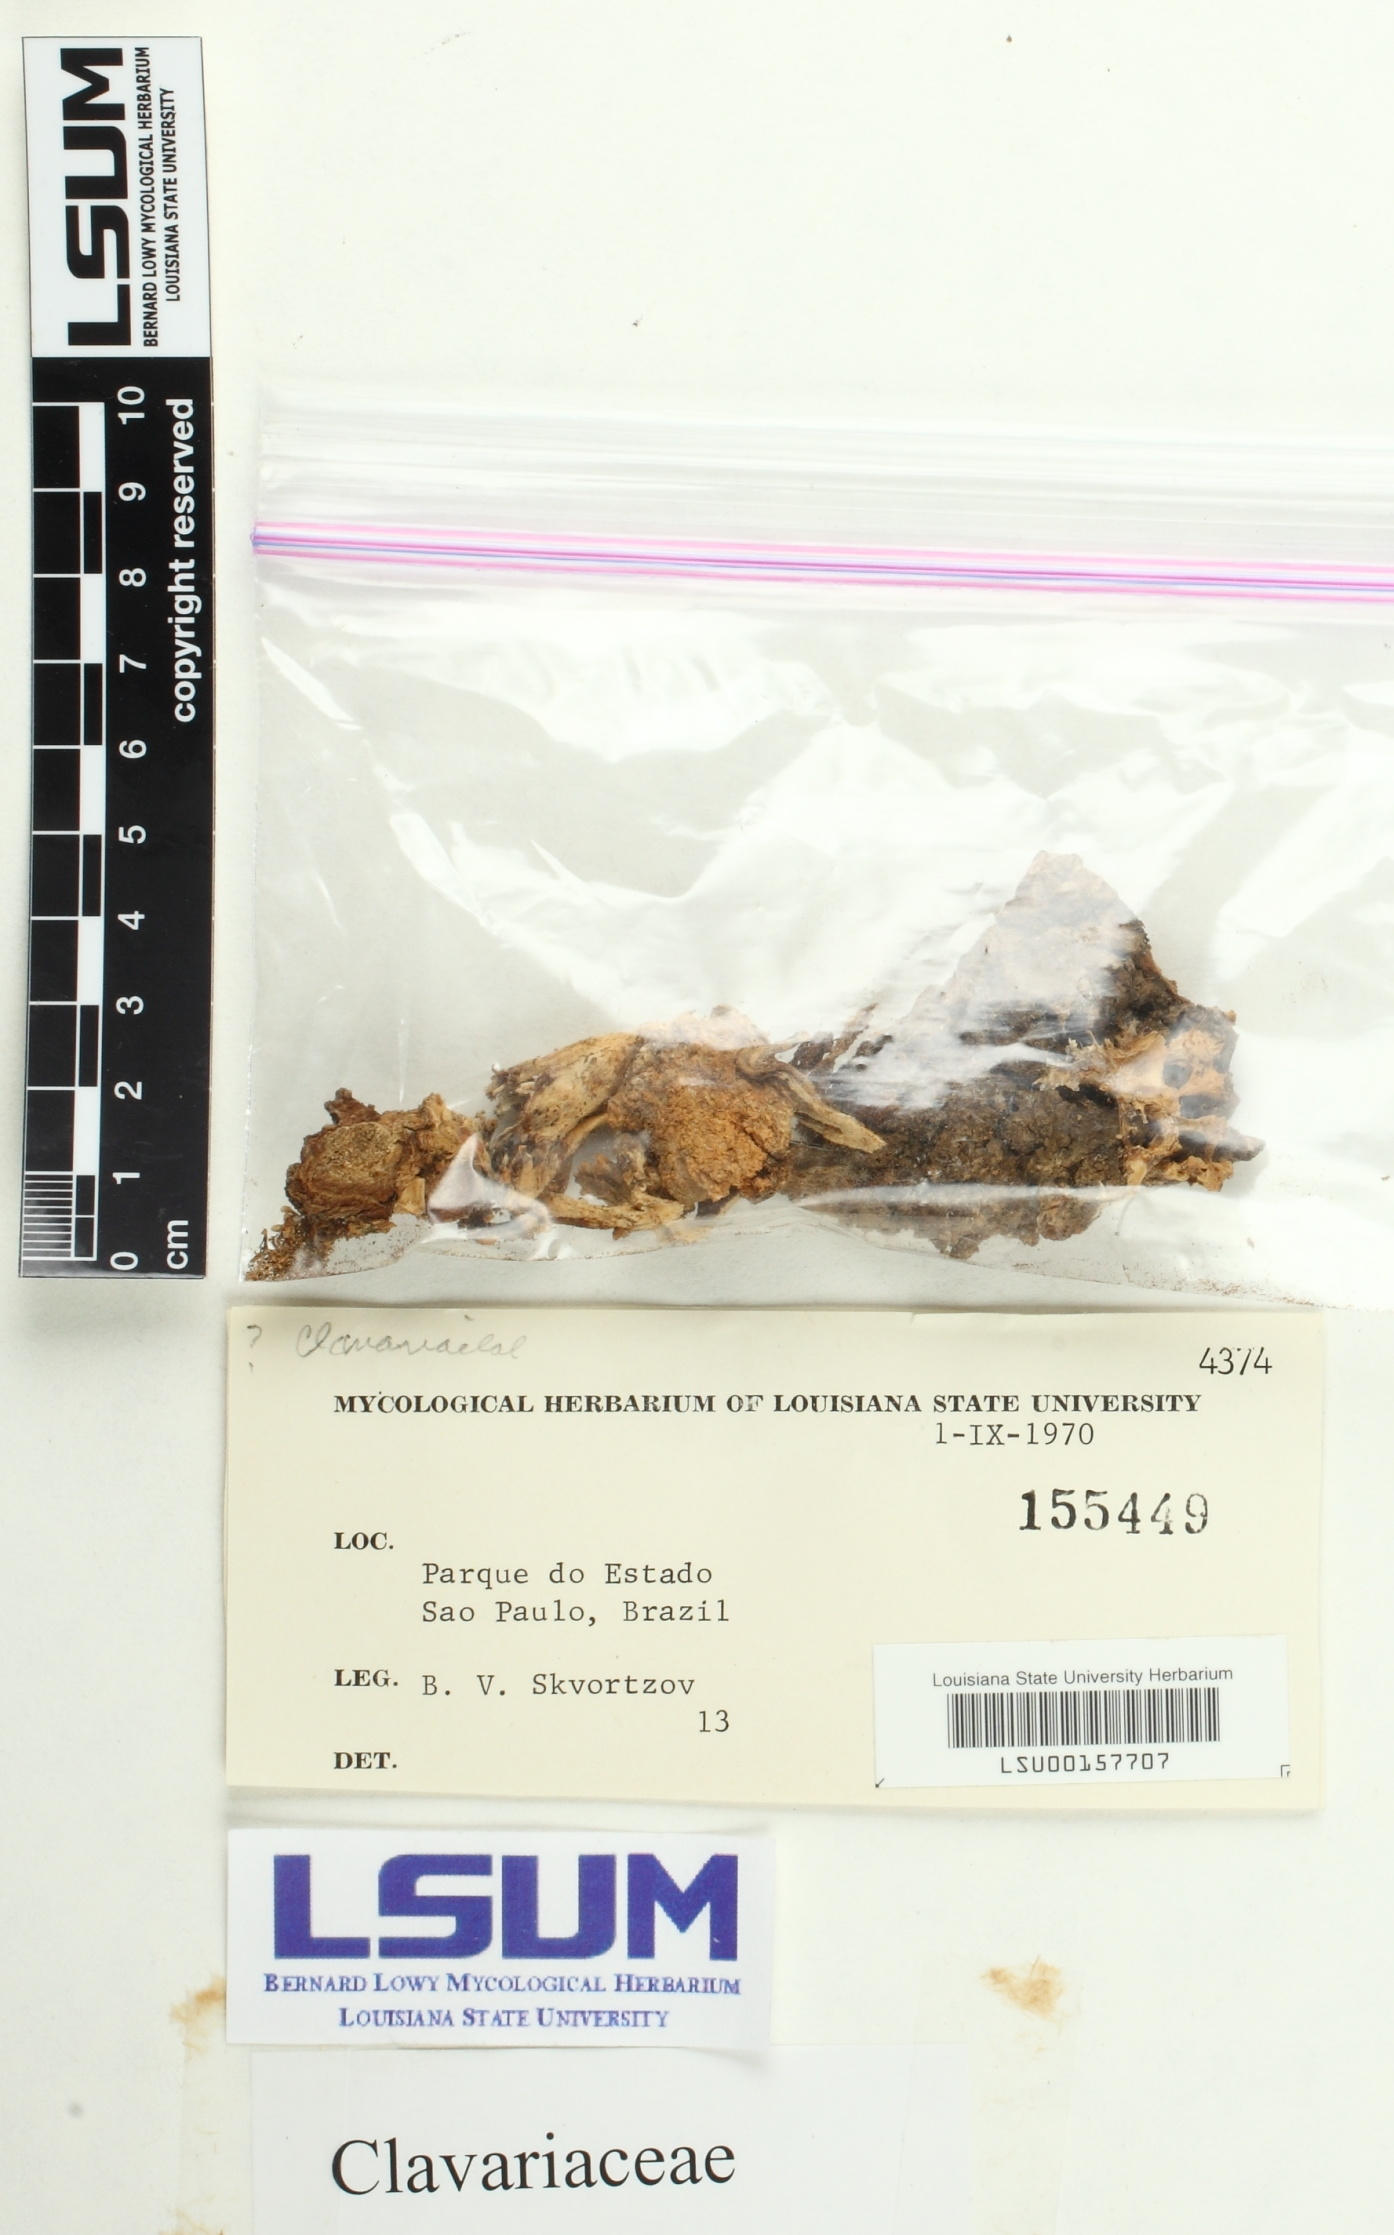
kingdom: Fungi
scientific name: Fungi
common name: Fungi
